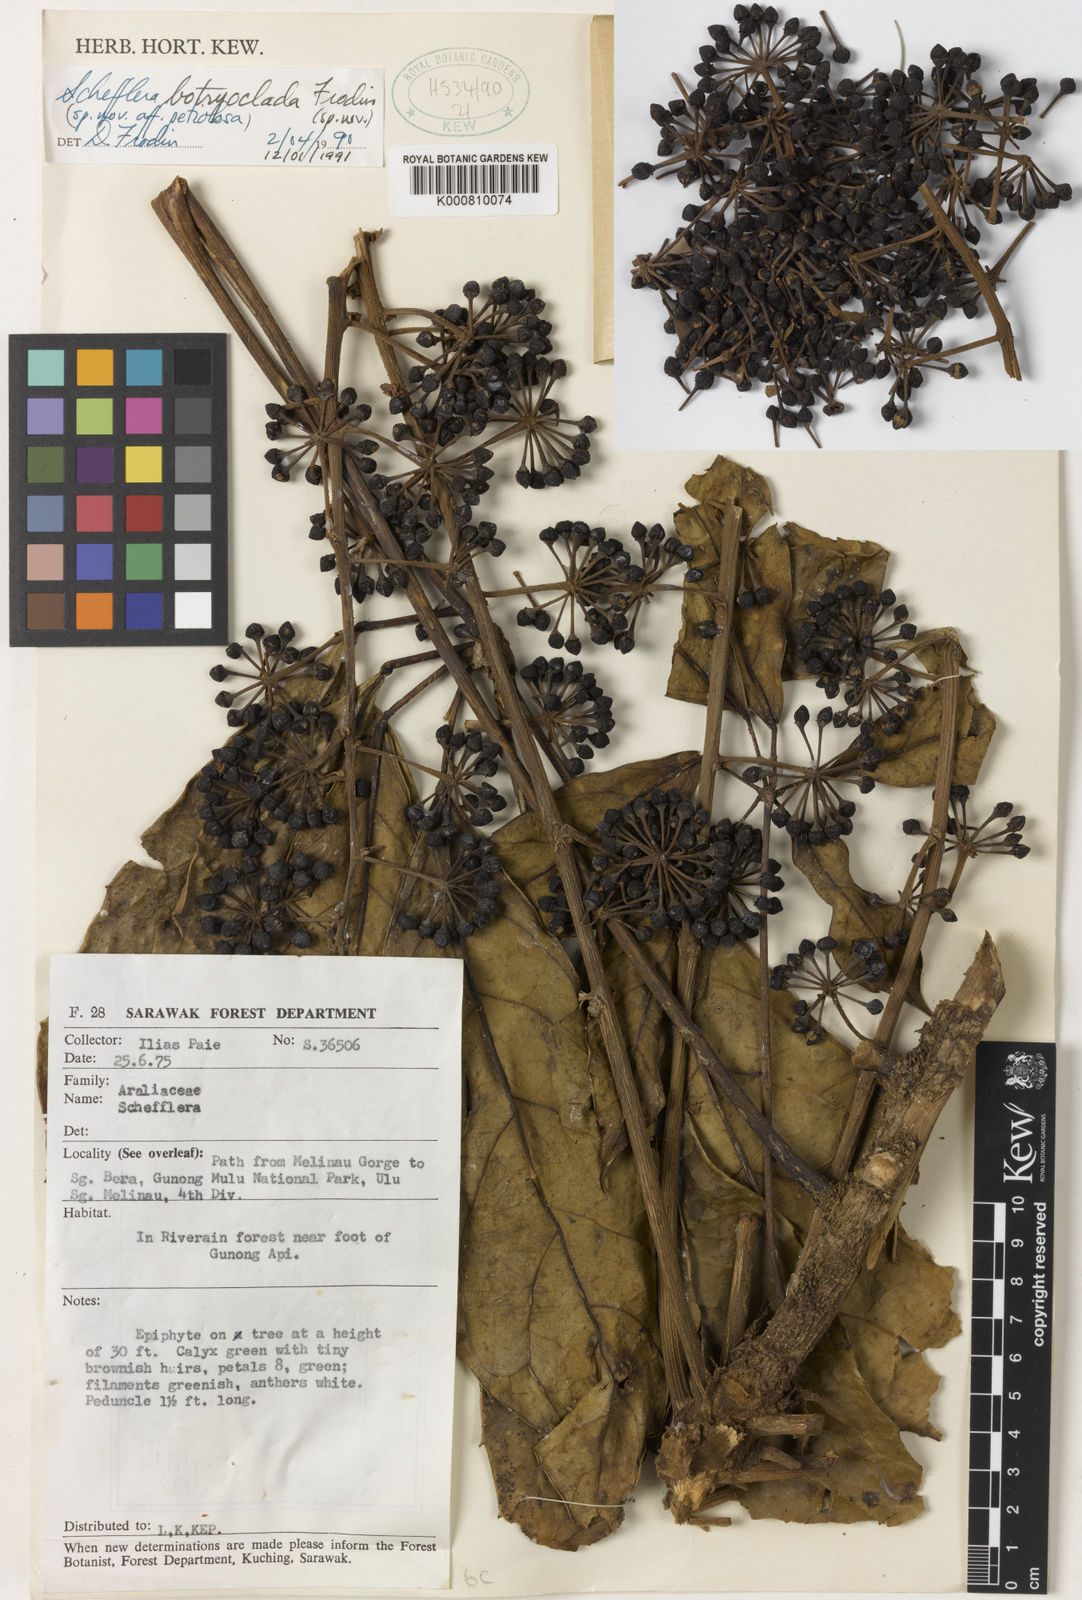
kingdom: Plantae
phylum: Tracheophyta
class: Magnoliopsida
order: Apiales
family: Araliaceae
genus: Schefflera
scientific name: Schefflera
